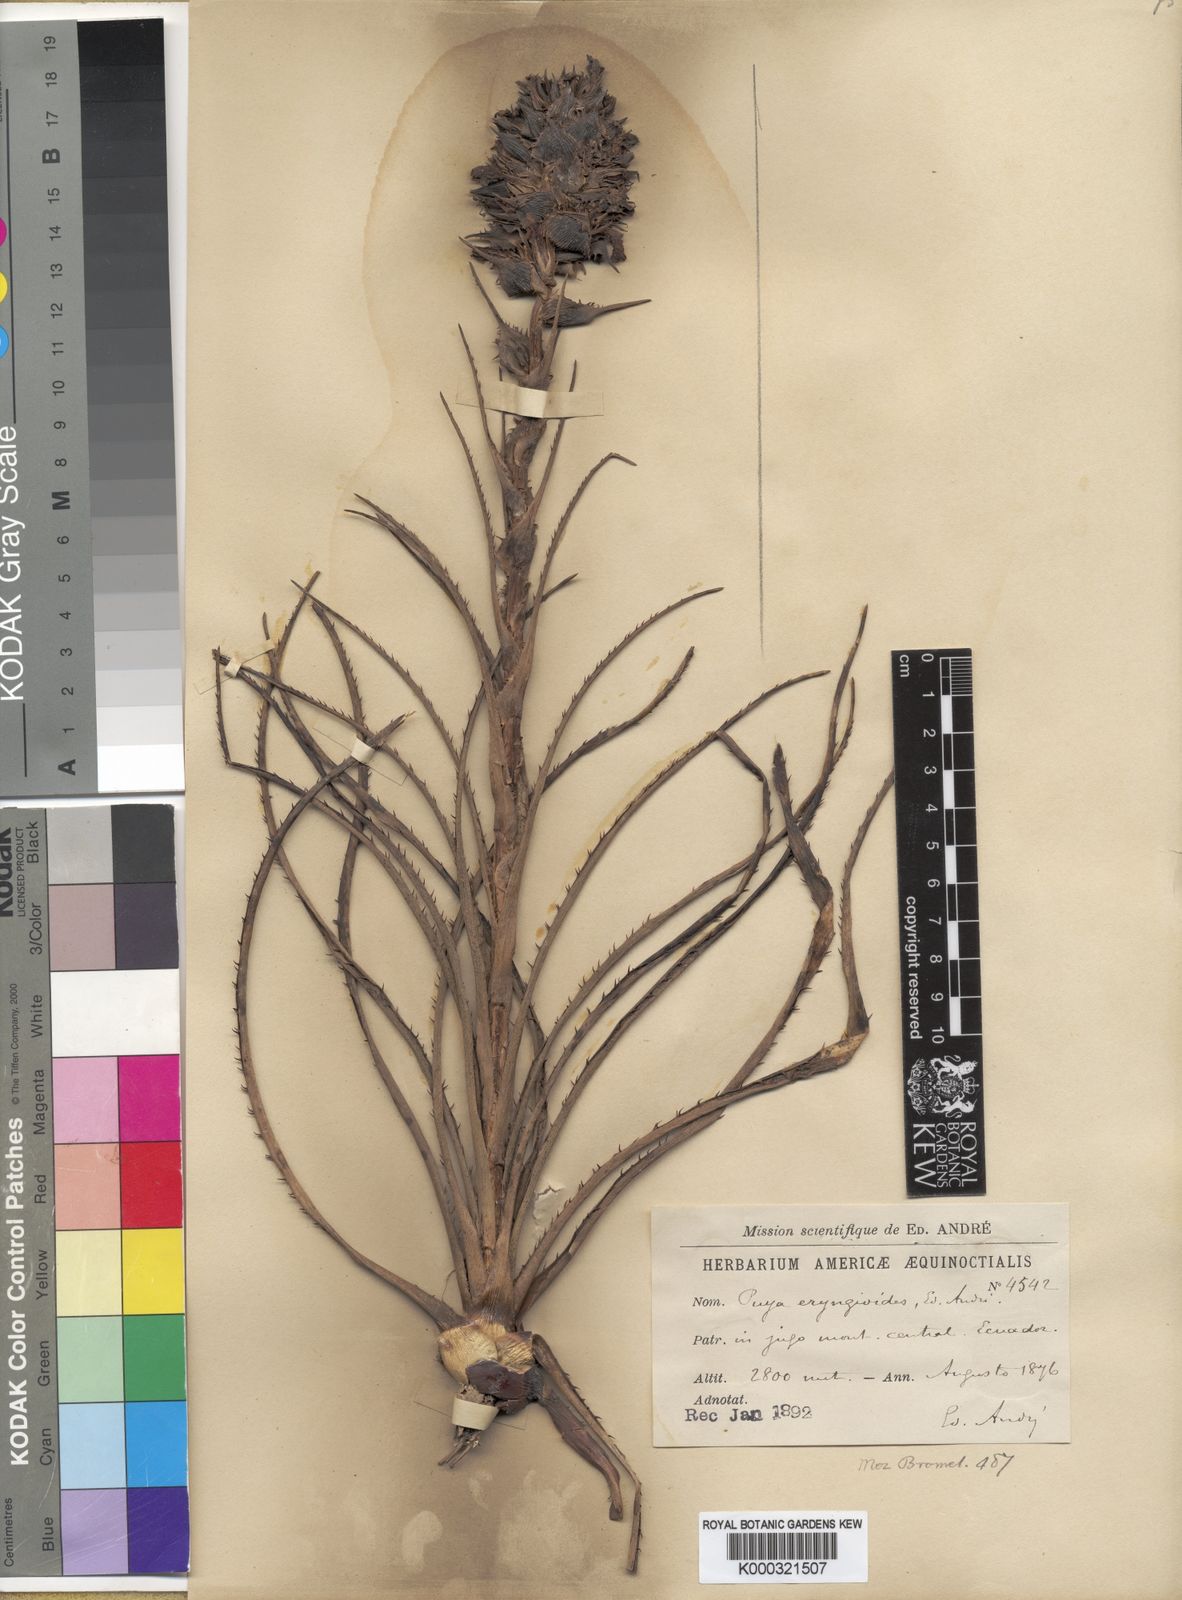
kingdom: Plantae
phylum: Tracheophyta
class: Liliopsida
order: Poales
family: Bromeliaceae
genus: Puya
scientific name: Puya eryngioides
